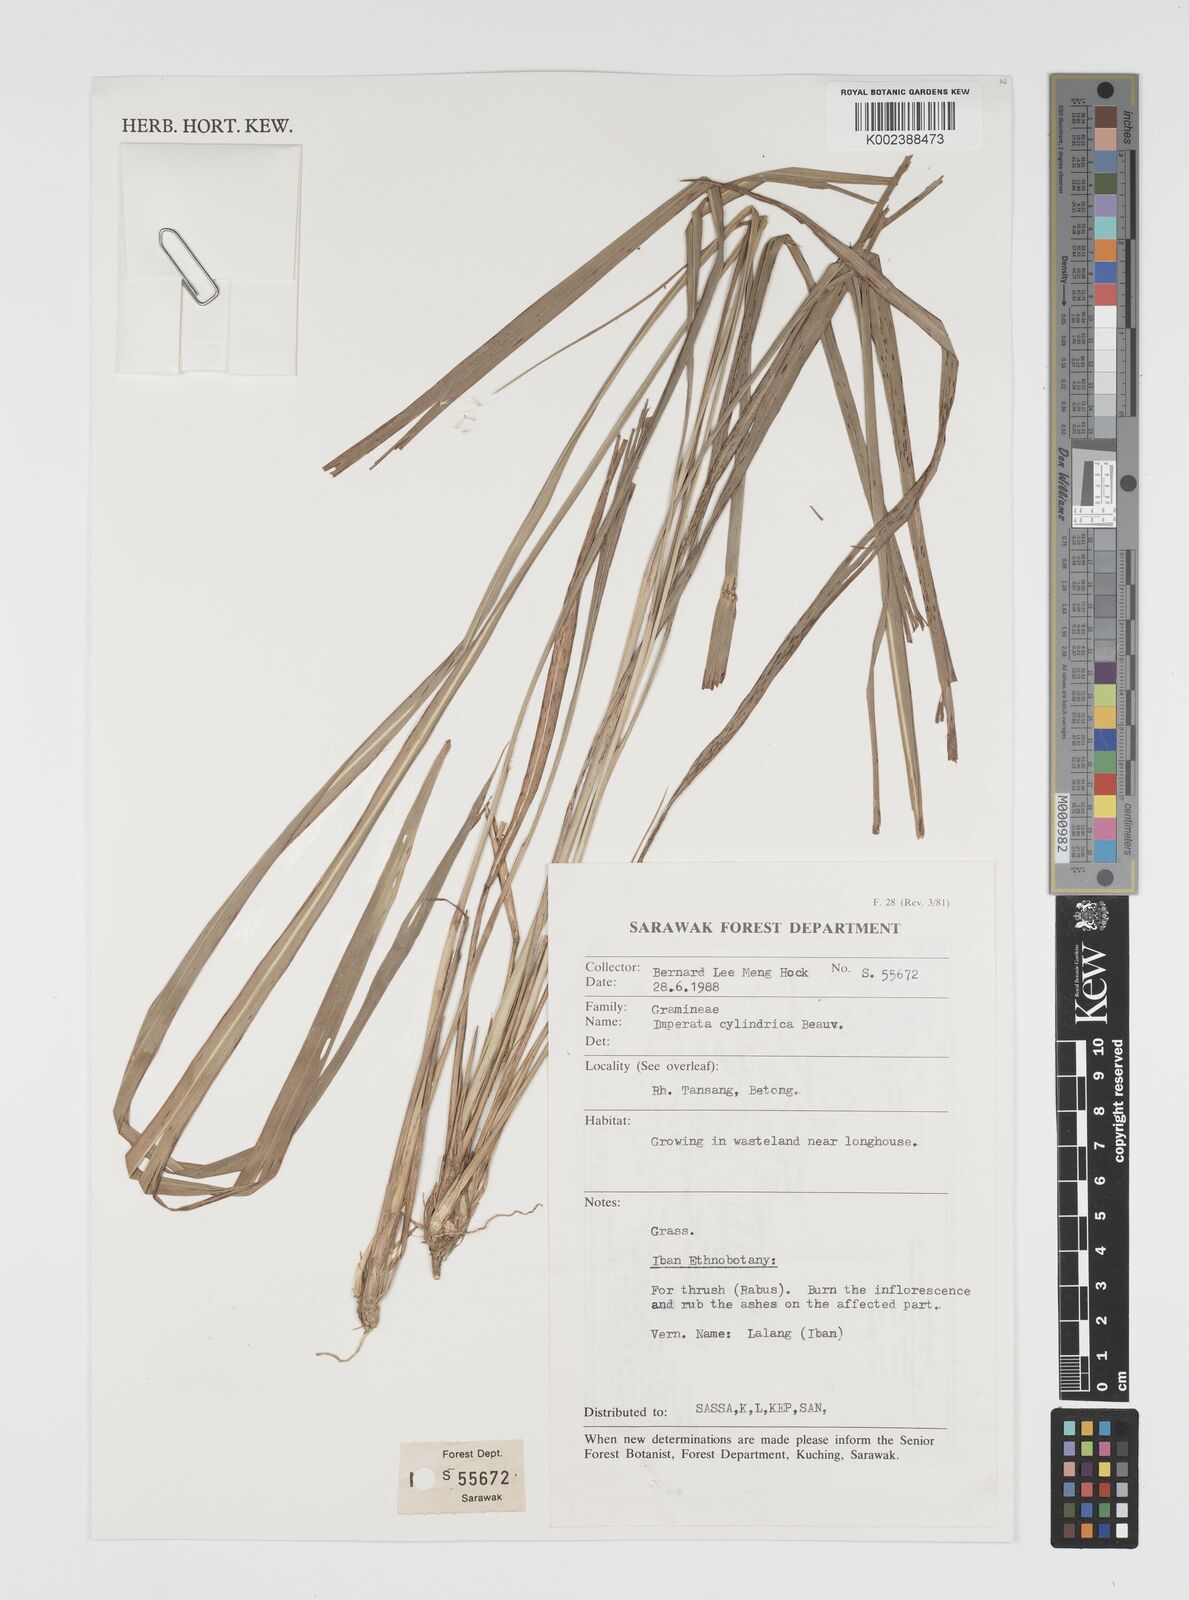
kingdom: Plantae
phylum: Tracheophyta
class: Liliopsida
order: Poales
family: Poaceae
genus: Imperata
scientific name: Imperata cylindrica
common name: Cogongrass
